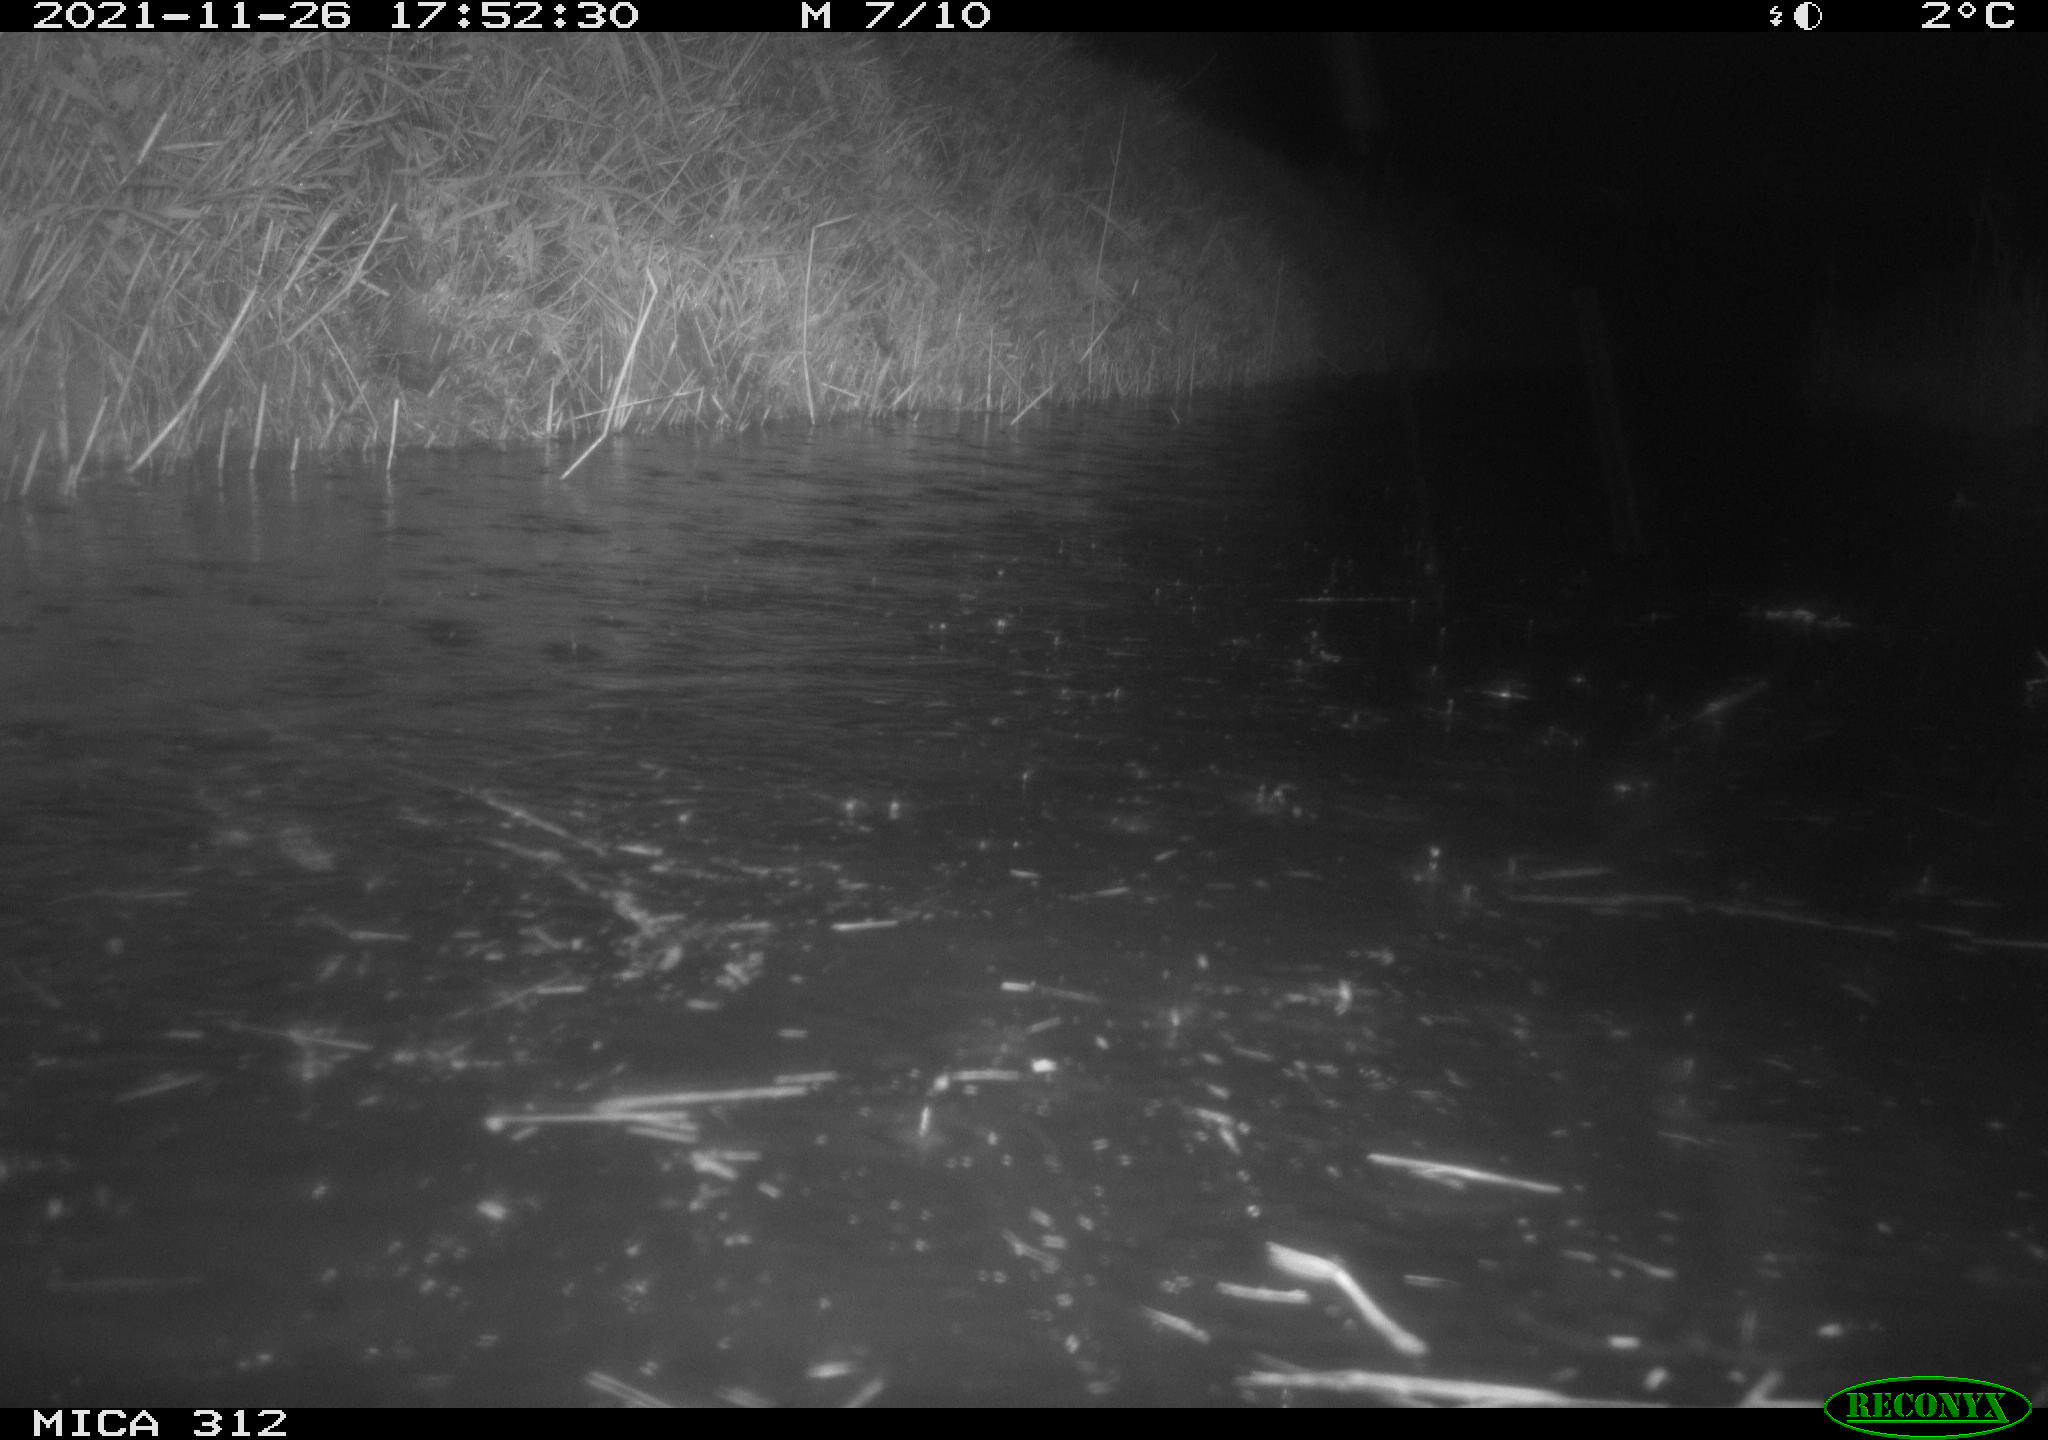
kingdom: Animalia
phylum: Chordata
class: Mammalia
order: Rodentia
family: Muridae
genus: Rattus
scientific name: Rattus norvegicus
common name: Brown rat
